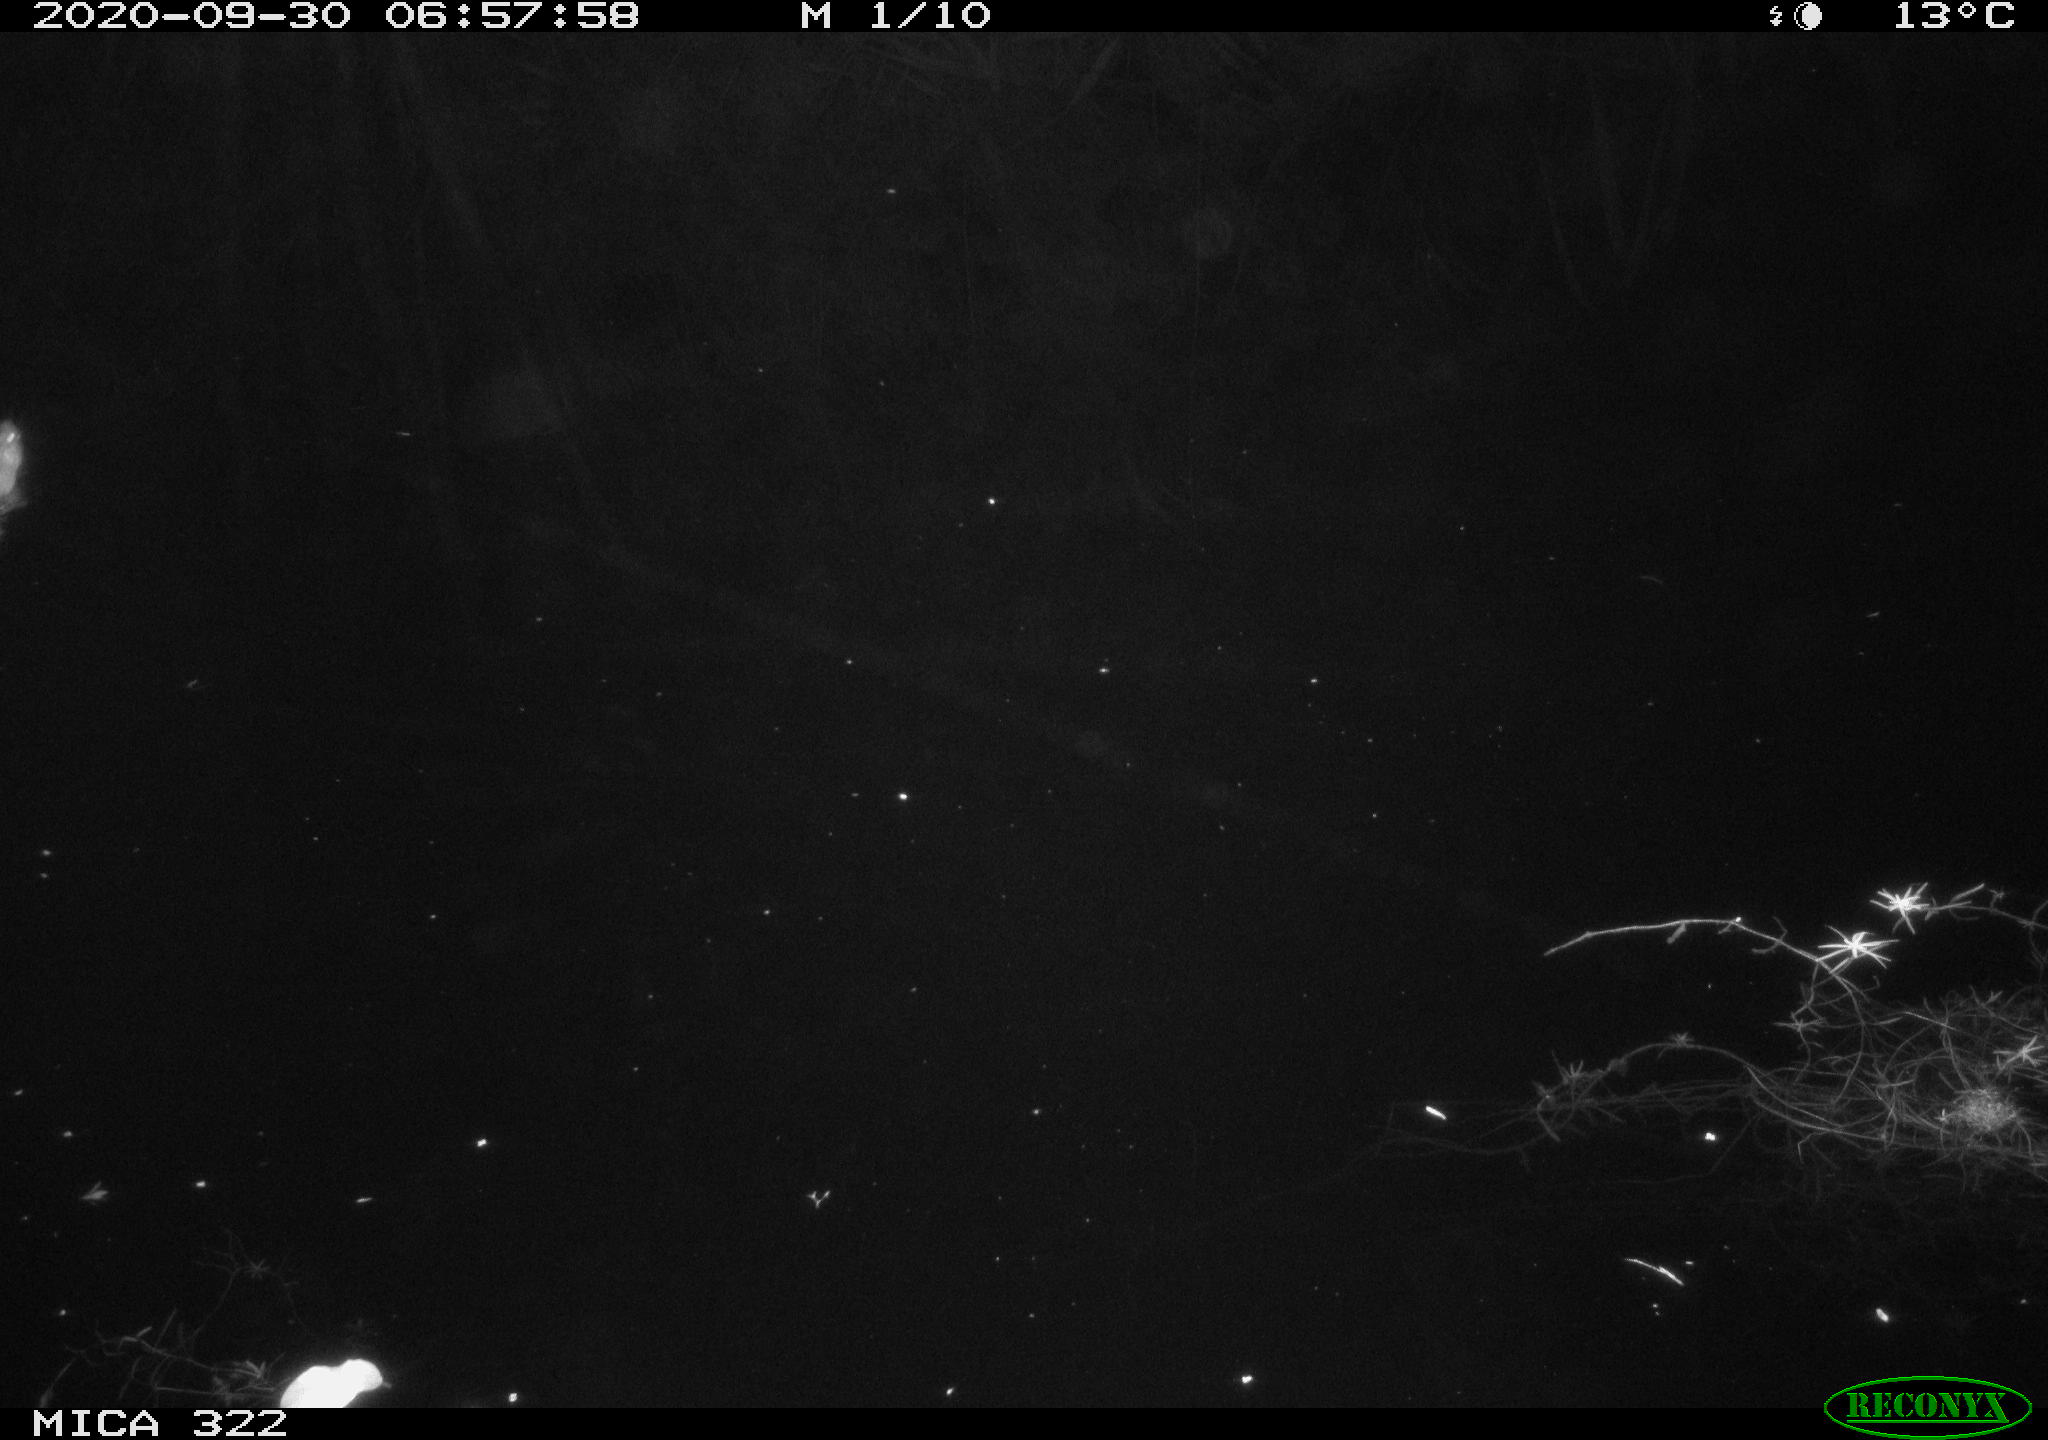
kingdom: Animalia
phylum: Chordata
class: Mammalia
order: Rodentia
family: Muridae
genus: Rattus
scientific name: Rattus norvegicus
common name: Brown rat
